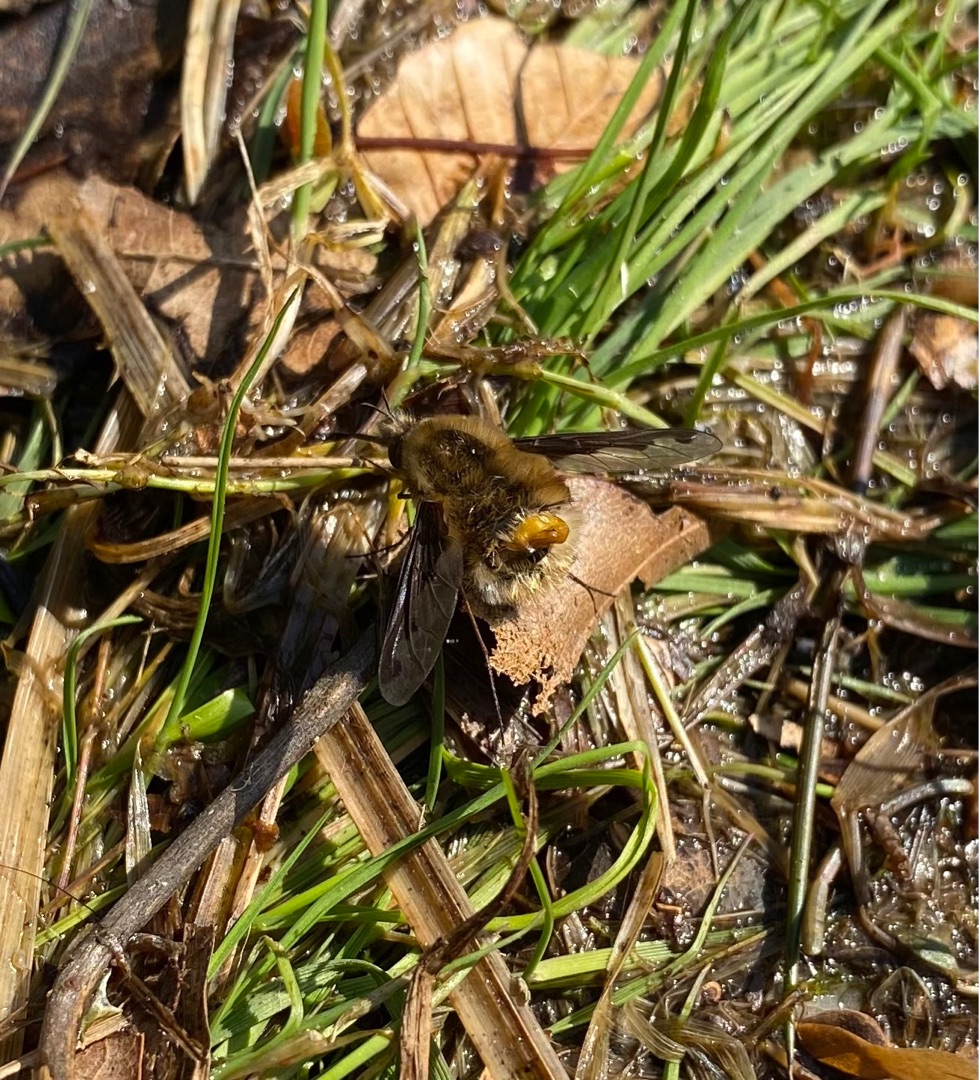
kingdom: Animalia
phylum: Arthropoda
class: Insecta
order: Diptera
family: Bombyliidae
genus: Bombylius
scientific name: Bombylius major
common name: Stor humleflue
